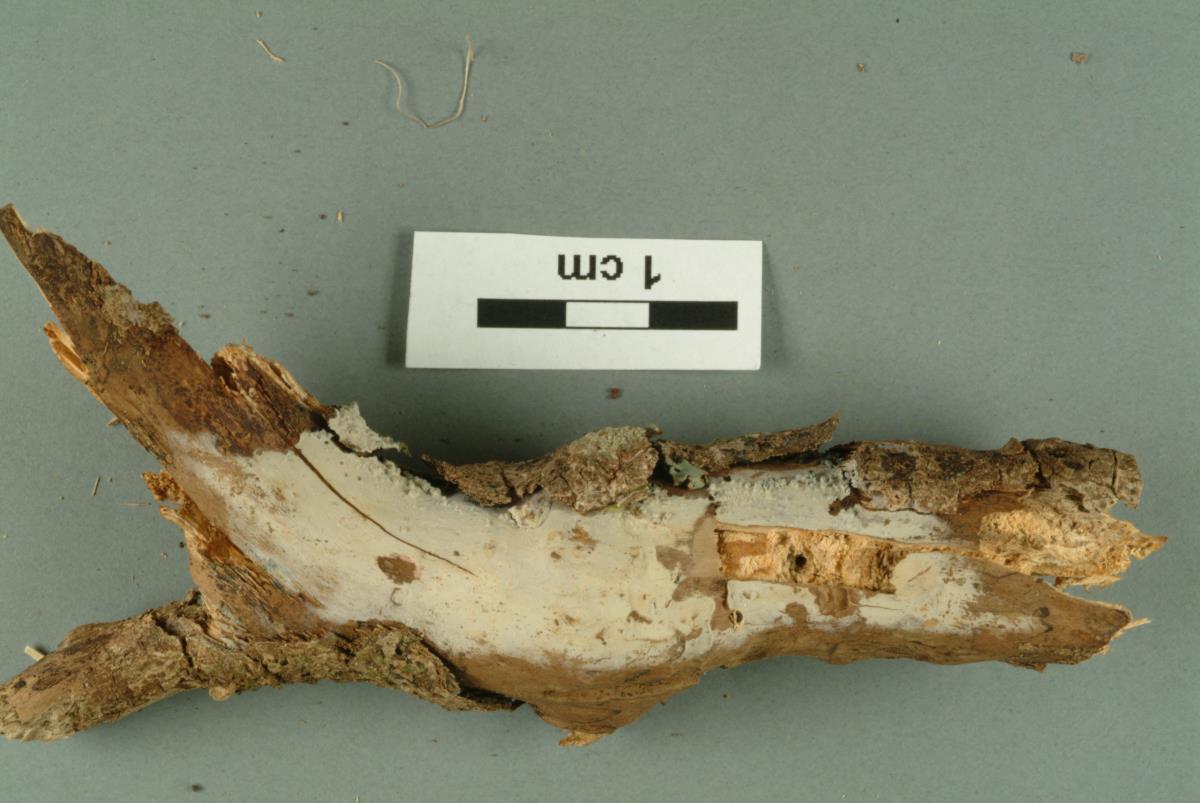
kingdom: Fungi
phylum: Basidiomycota
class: Agaricomycetes
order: Polyporales
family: Hyphodermataceae
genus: Hyphoderma
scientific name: Hyphoderma obtusiforme
